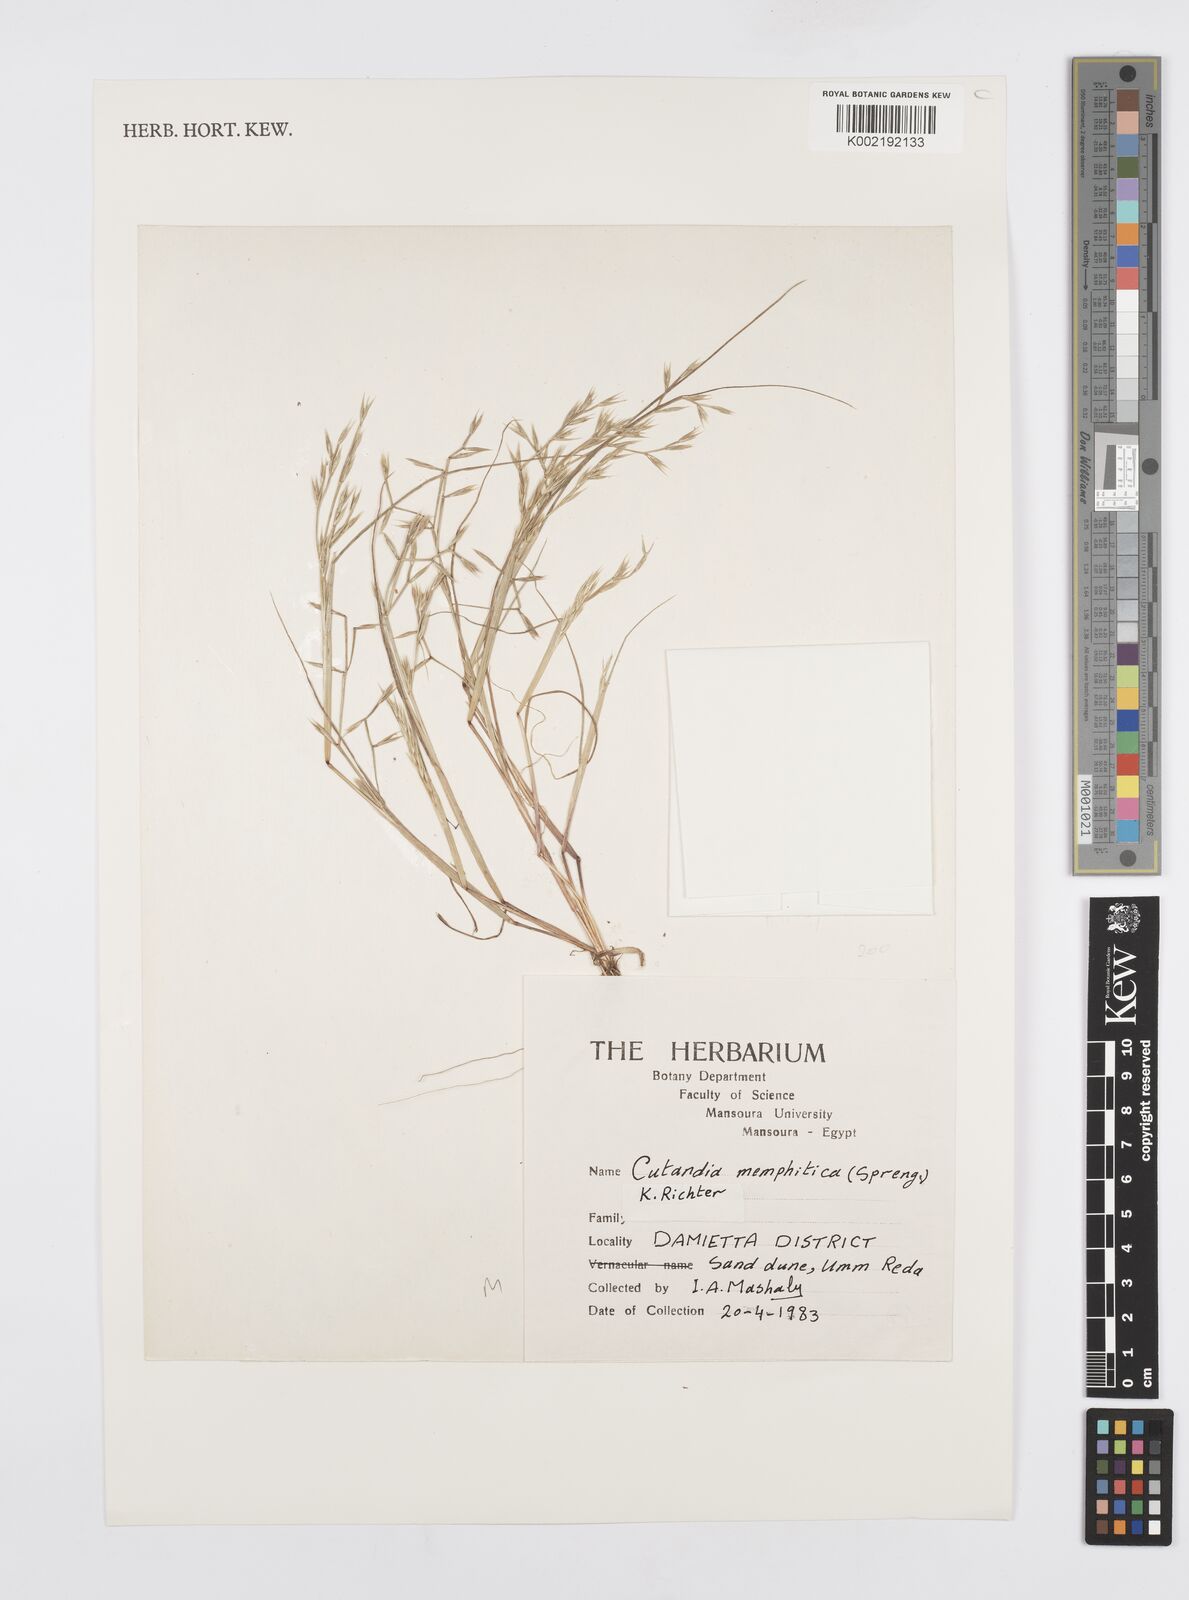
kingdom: Plantae
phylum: Tracheophyta
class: Liliopsida
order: Poales
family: Poaceae
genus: Cutandia
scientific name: Cutandia memphitica
